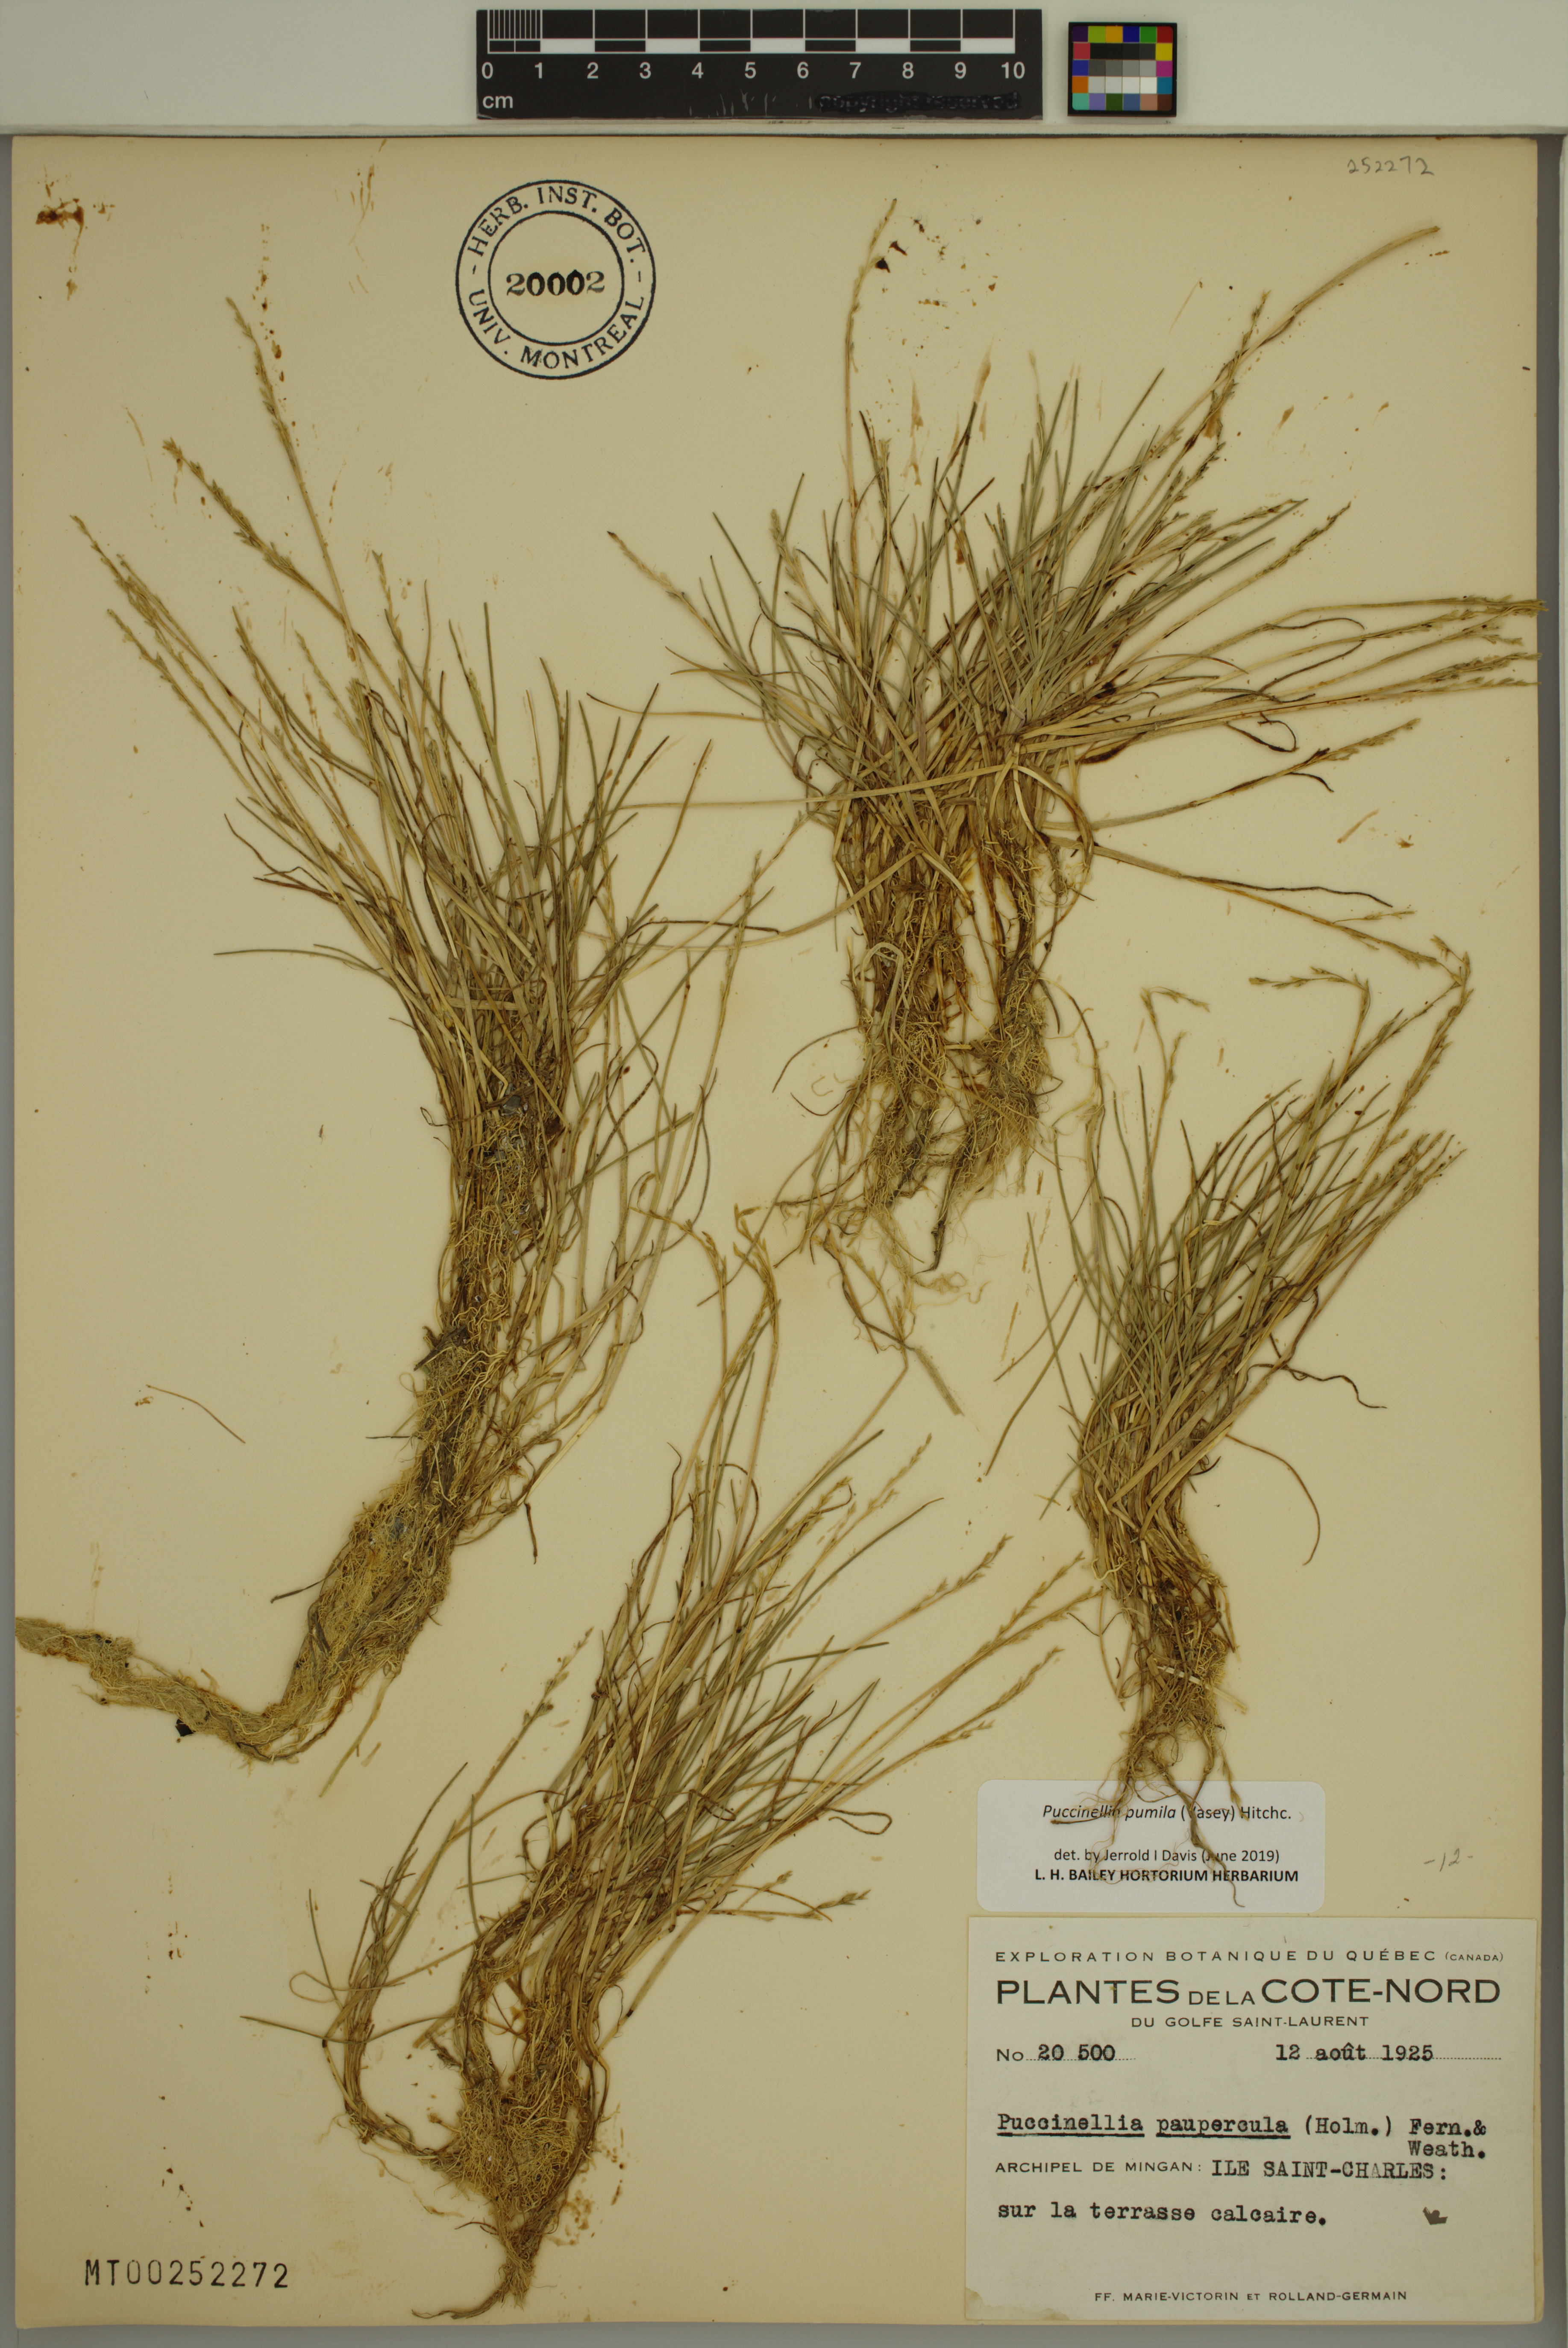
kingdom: Plantae
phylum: Tracheophyta
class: Liliopsida
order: Poales
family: Poaceae
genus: Puccinellia
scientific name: Puccinellia pumila
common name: Dwarf alkaligrass
